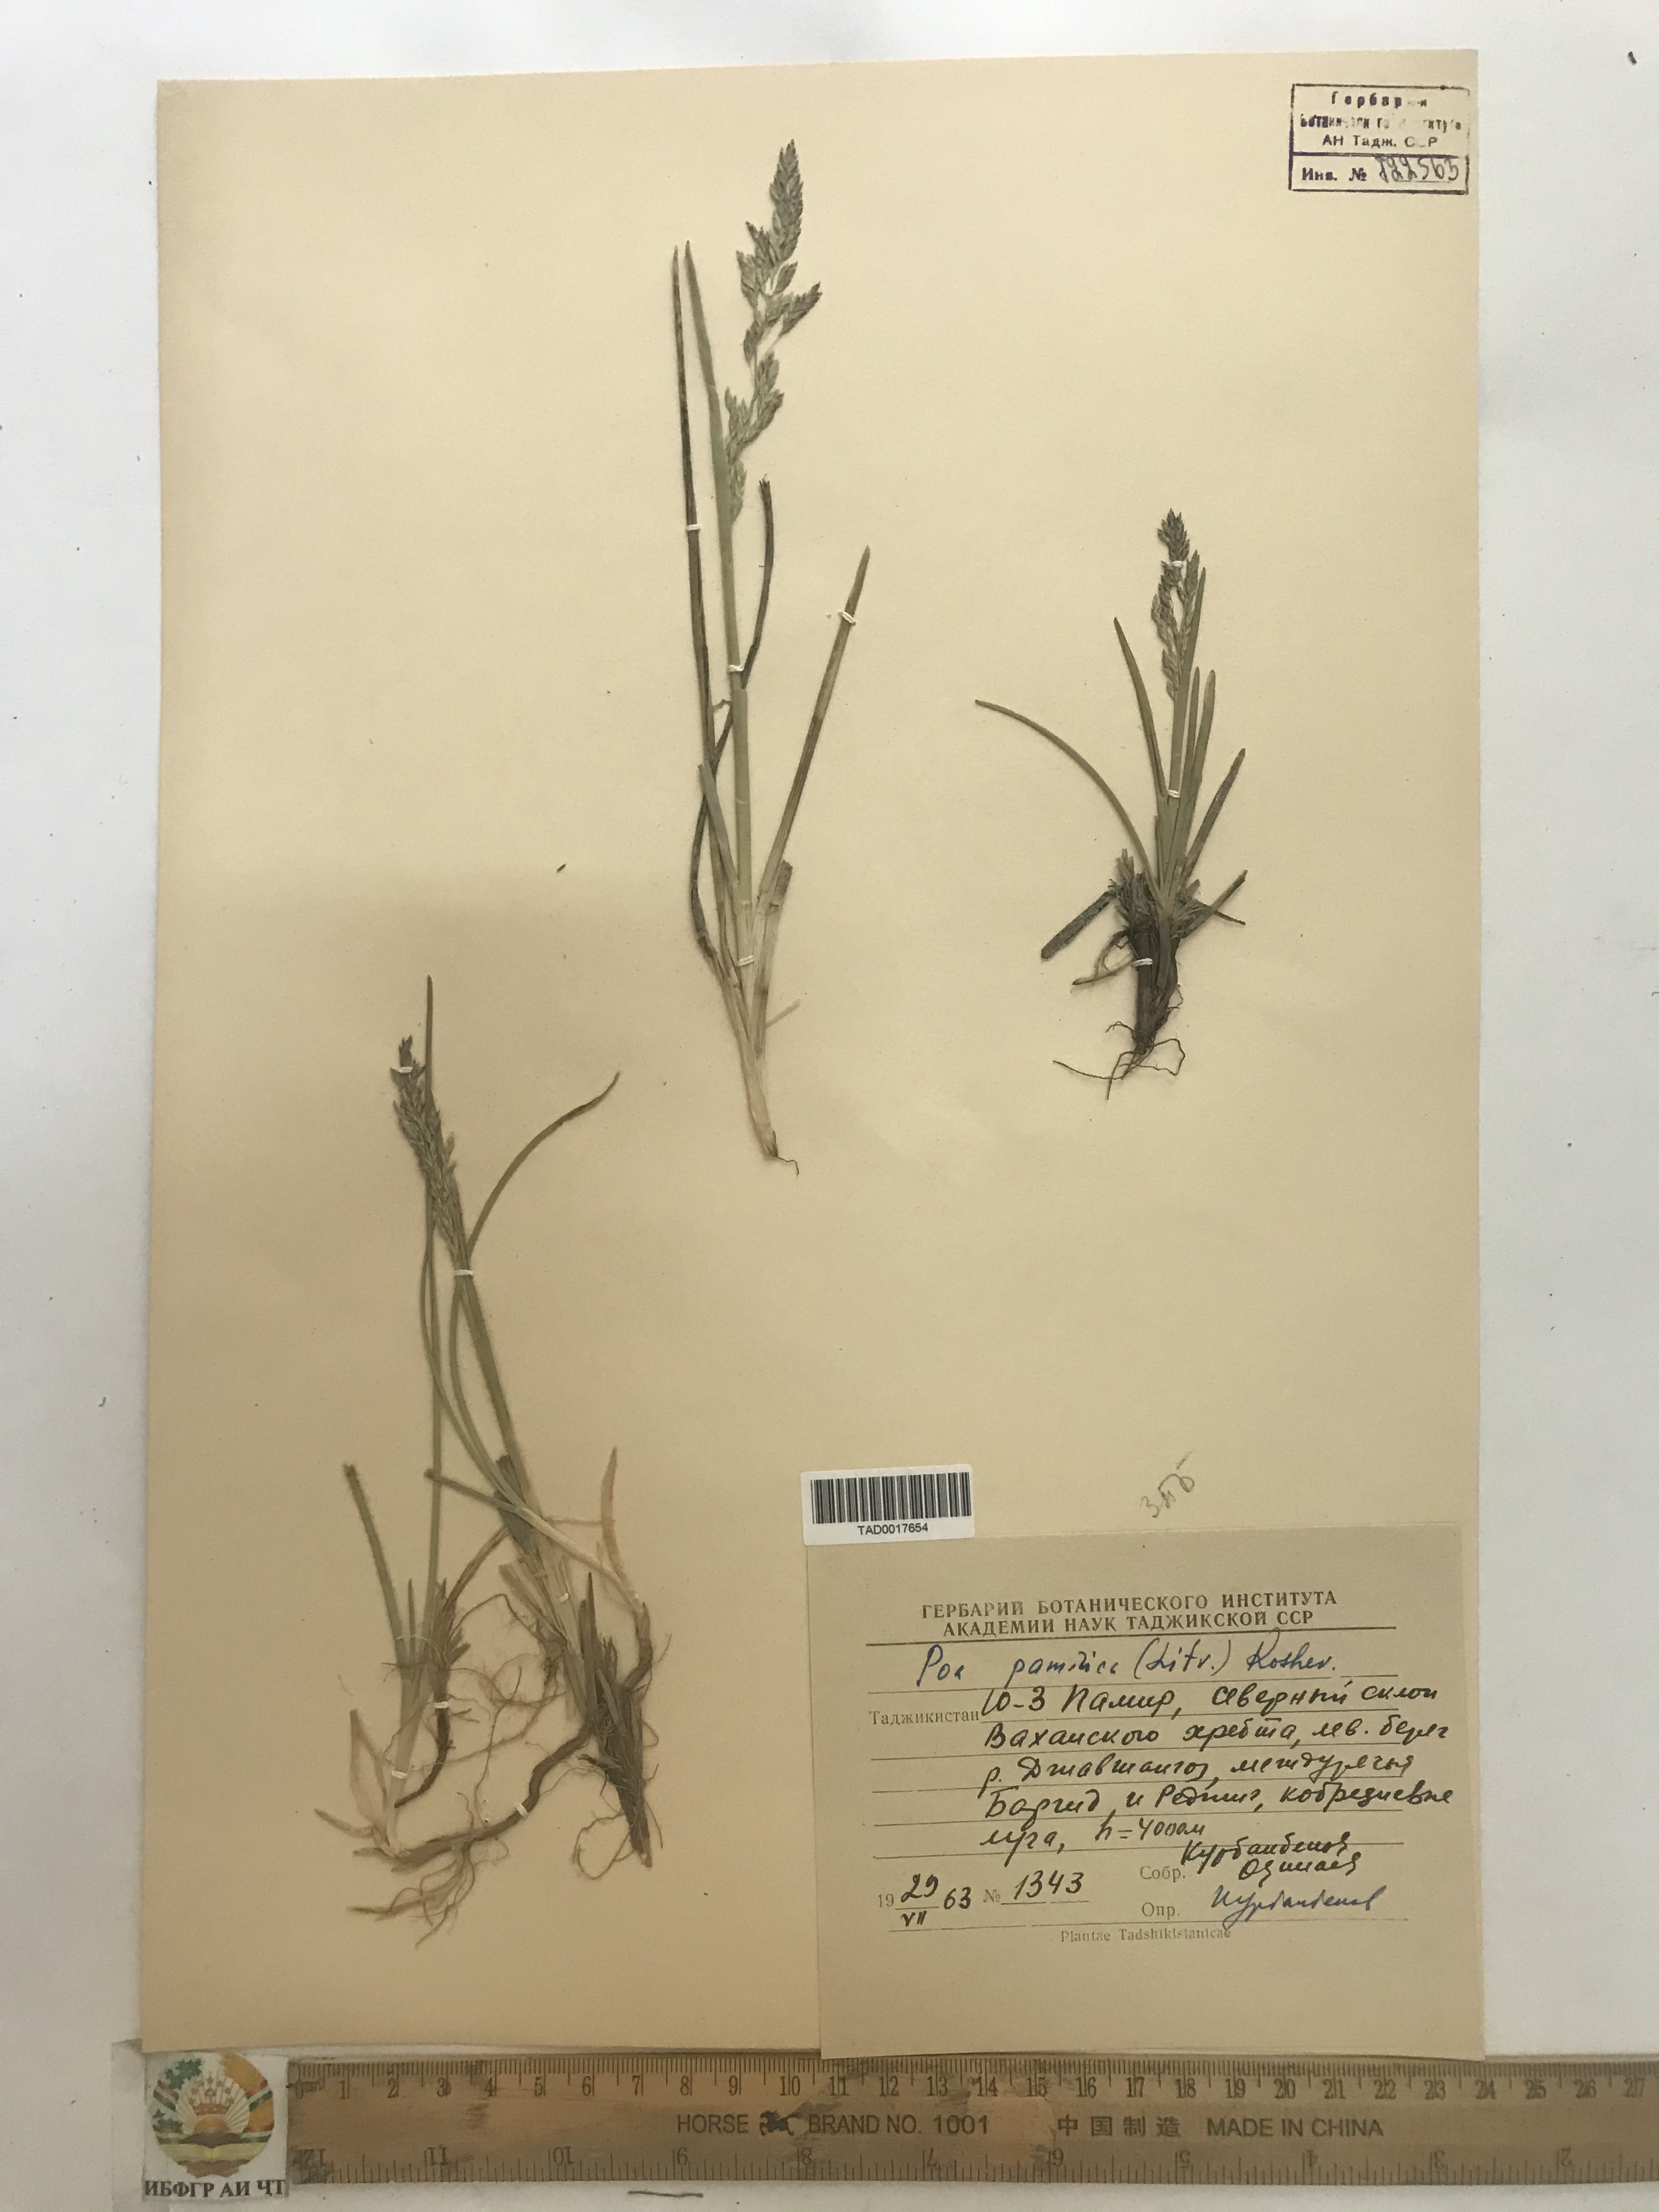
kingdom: Plantae
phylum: Tracheophyta
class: Liliopsida
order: Poales
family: Poaceae
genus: Poa
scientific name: Poa tianschanica
